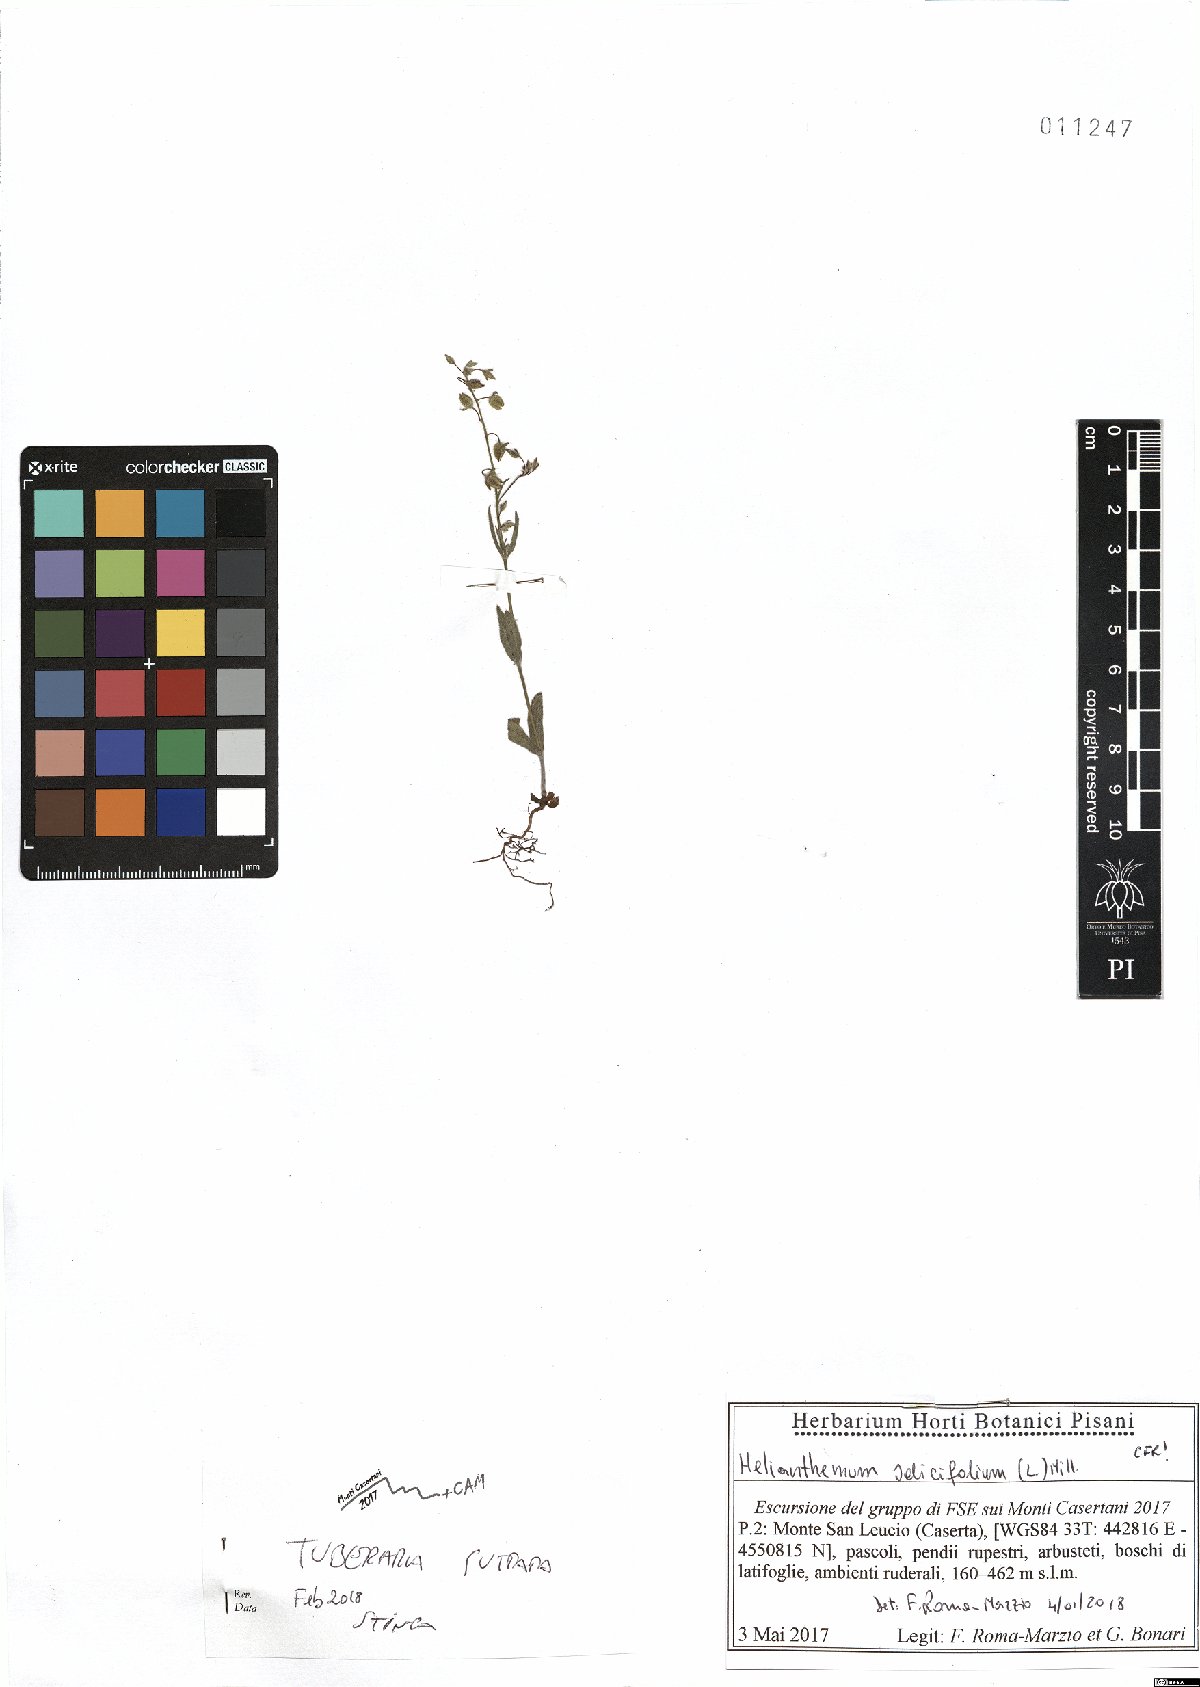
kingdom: Plantae
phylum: Tracheophyta
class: Magnoliopsida
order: Malvales
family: Cistaceae
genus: Tuberaria
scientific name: Tuberaria guttata
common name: Spotted rock-rose
